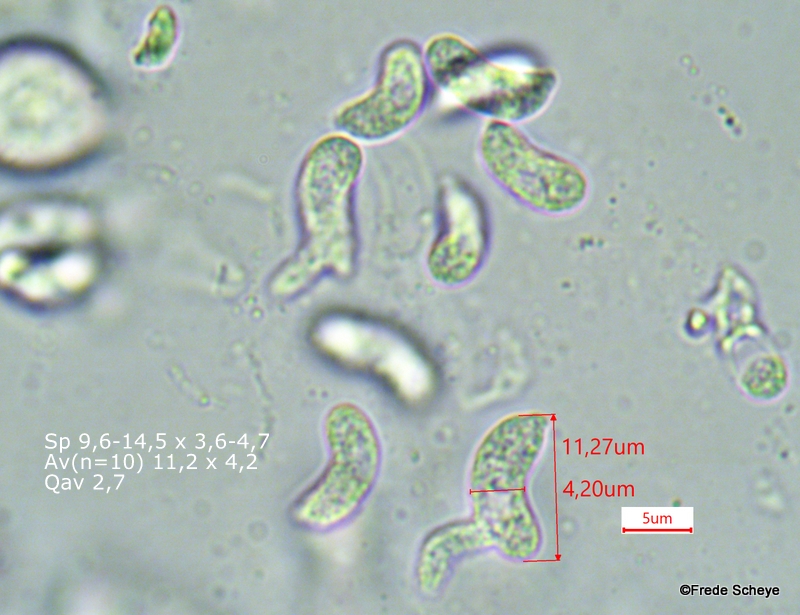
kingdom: Fungi
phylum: Basidiomycota
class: Agaricomycetes
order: Sebacinales
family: Sebacinaceae
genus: Sebacina
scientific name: Sebacina grisea
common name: blågrå bævrehinde
